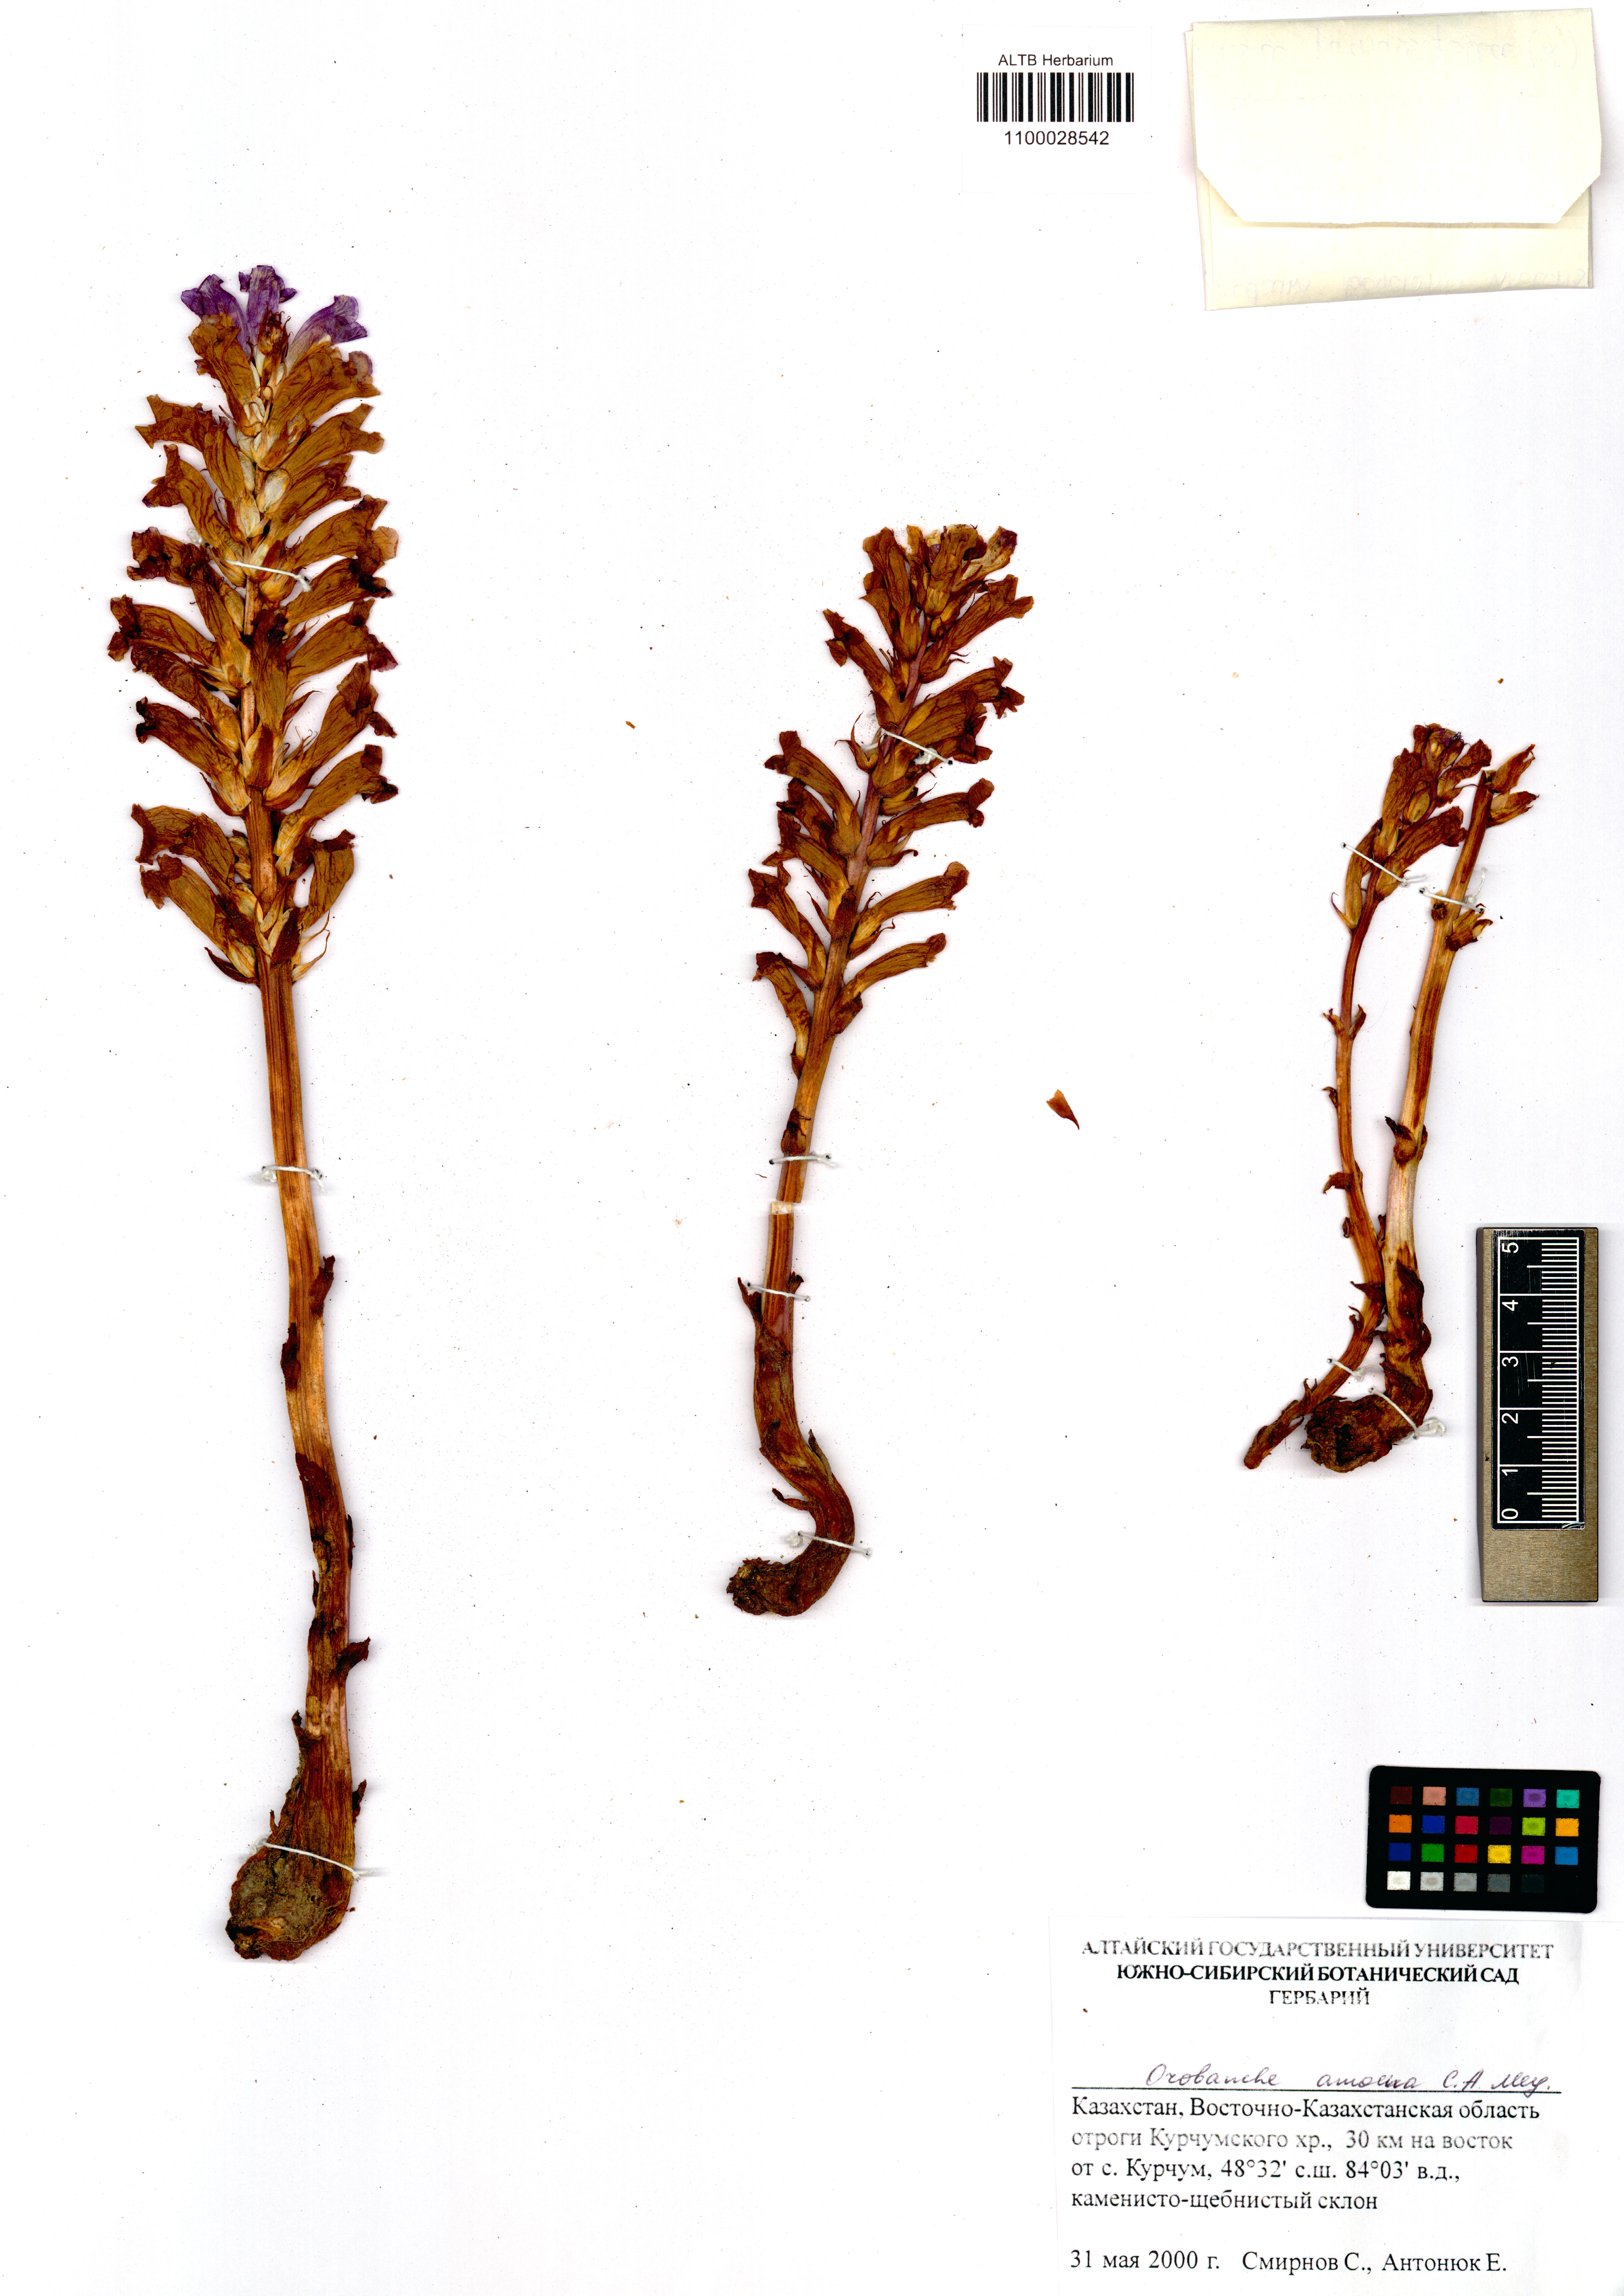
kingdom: Plantae
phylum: Tracheophyta
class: Magnoliopsida
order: Lamiales
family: Orobanchaceae
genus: Orobanche
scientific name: Orobanche amoena
